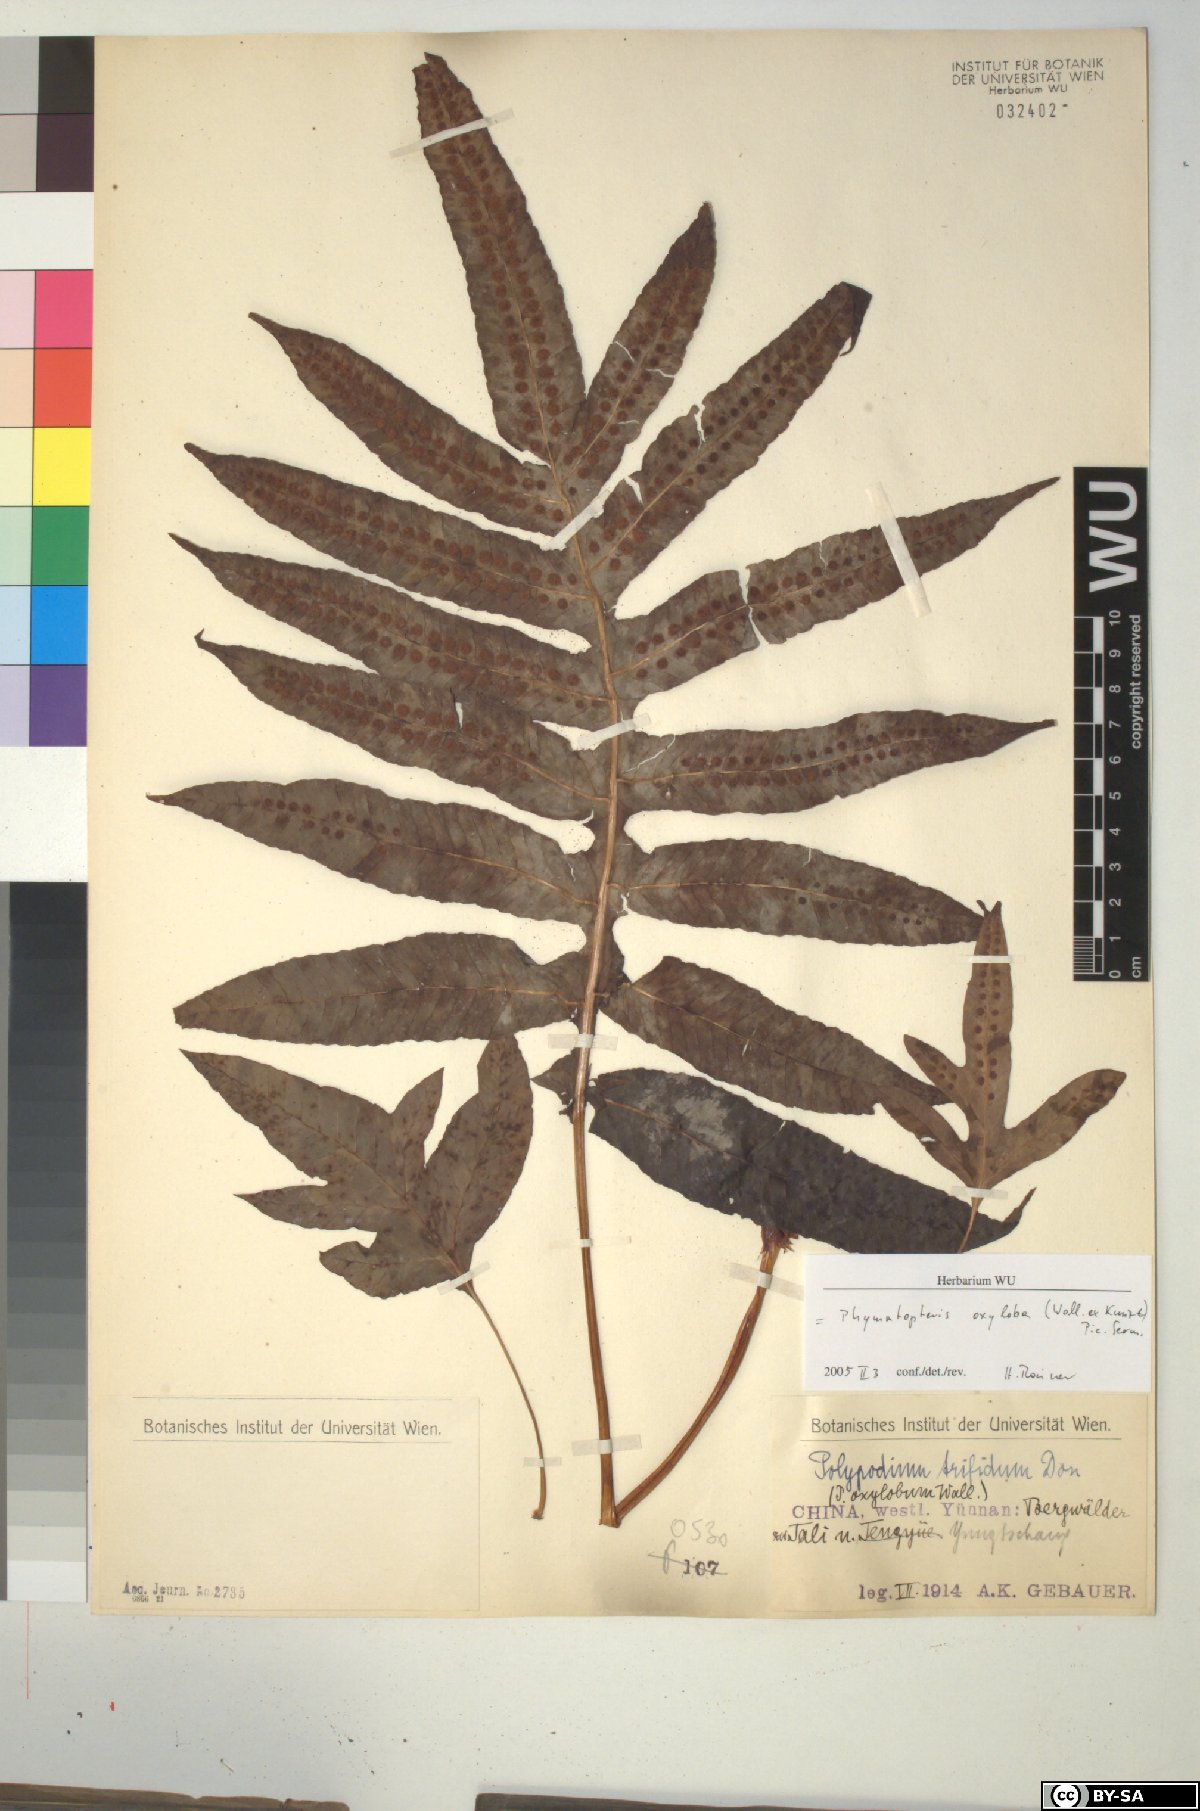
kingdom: Plantae
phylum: Tracheophyta
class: Polypodiopsida
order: Polypodiales
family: Polypodiaceae
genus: Selliguea
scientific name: Selliguea oxyloba
